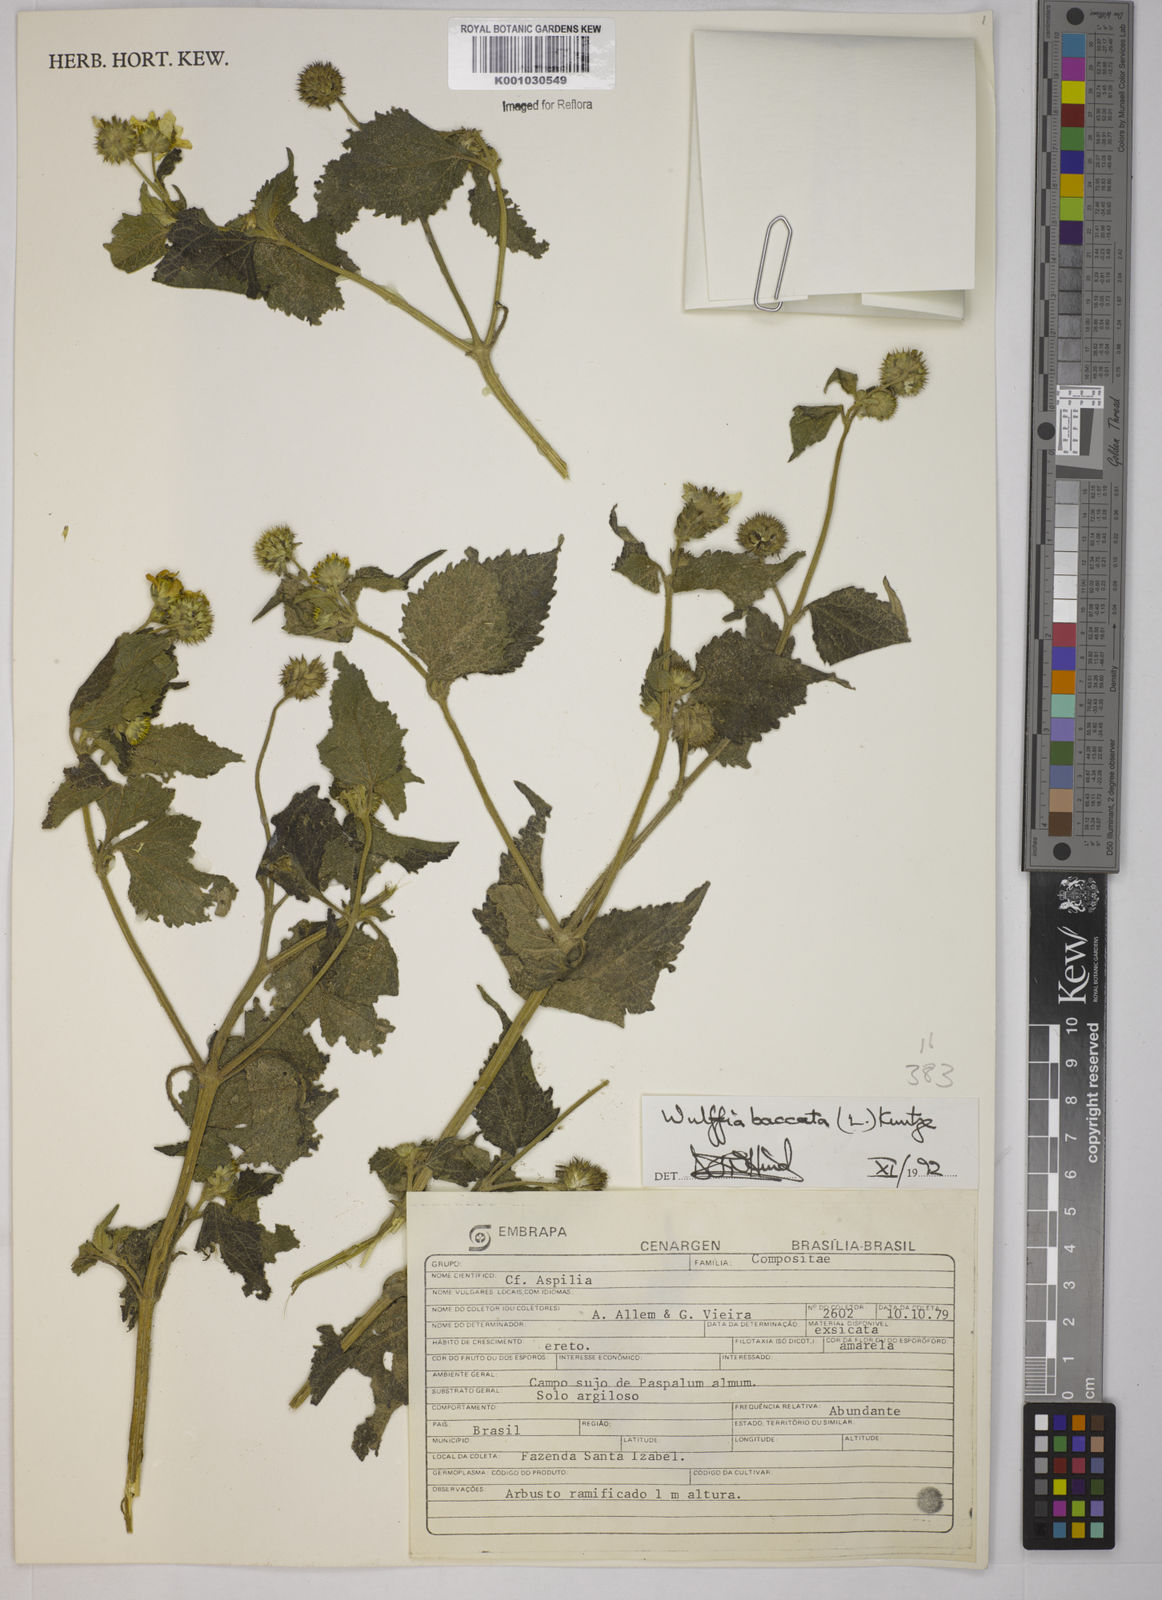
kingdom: Plantae
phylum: Tracheophyta
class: Magnoliopsida
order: Asterales
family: Asteraceae
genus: Tilesia
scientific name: Tilesia baccata
